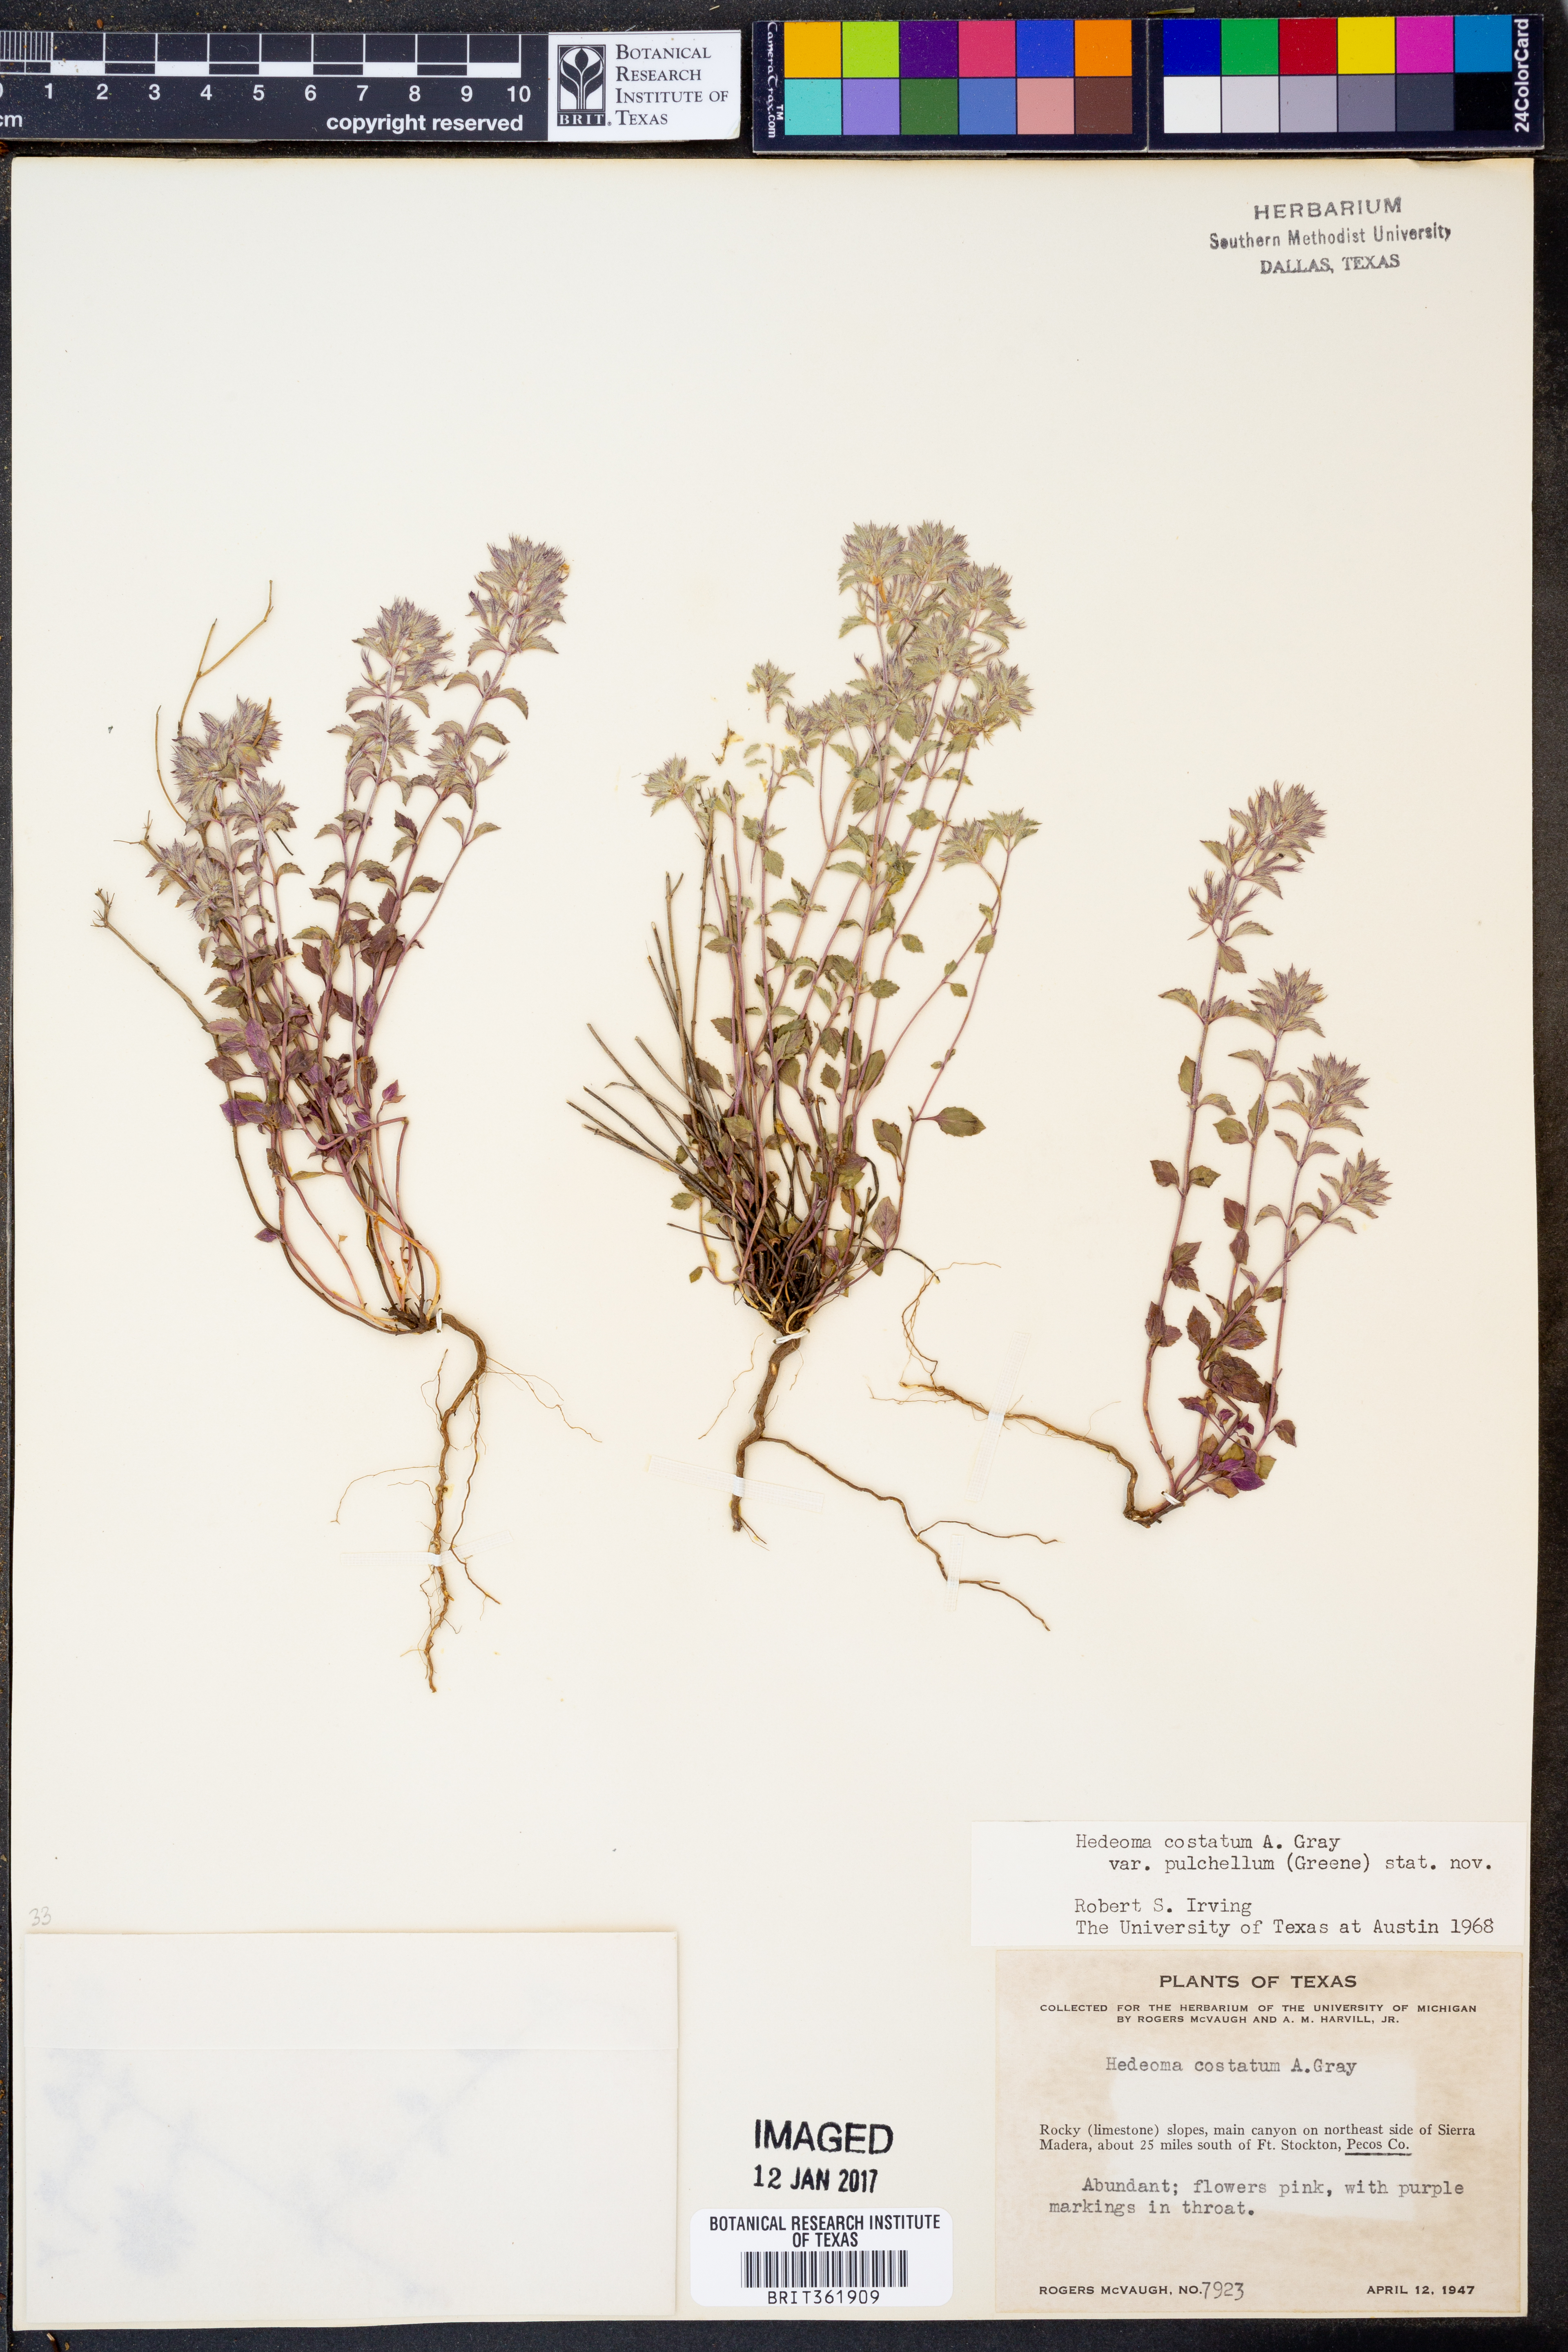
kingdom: Plantae
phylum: Tracheophyta
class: Magnoliopsida
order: Lamiales
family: Lamiaceae
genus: Hedeoma
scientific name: Hedeoma costata
